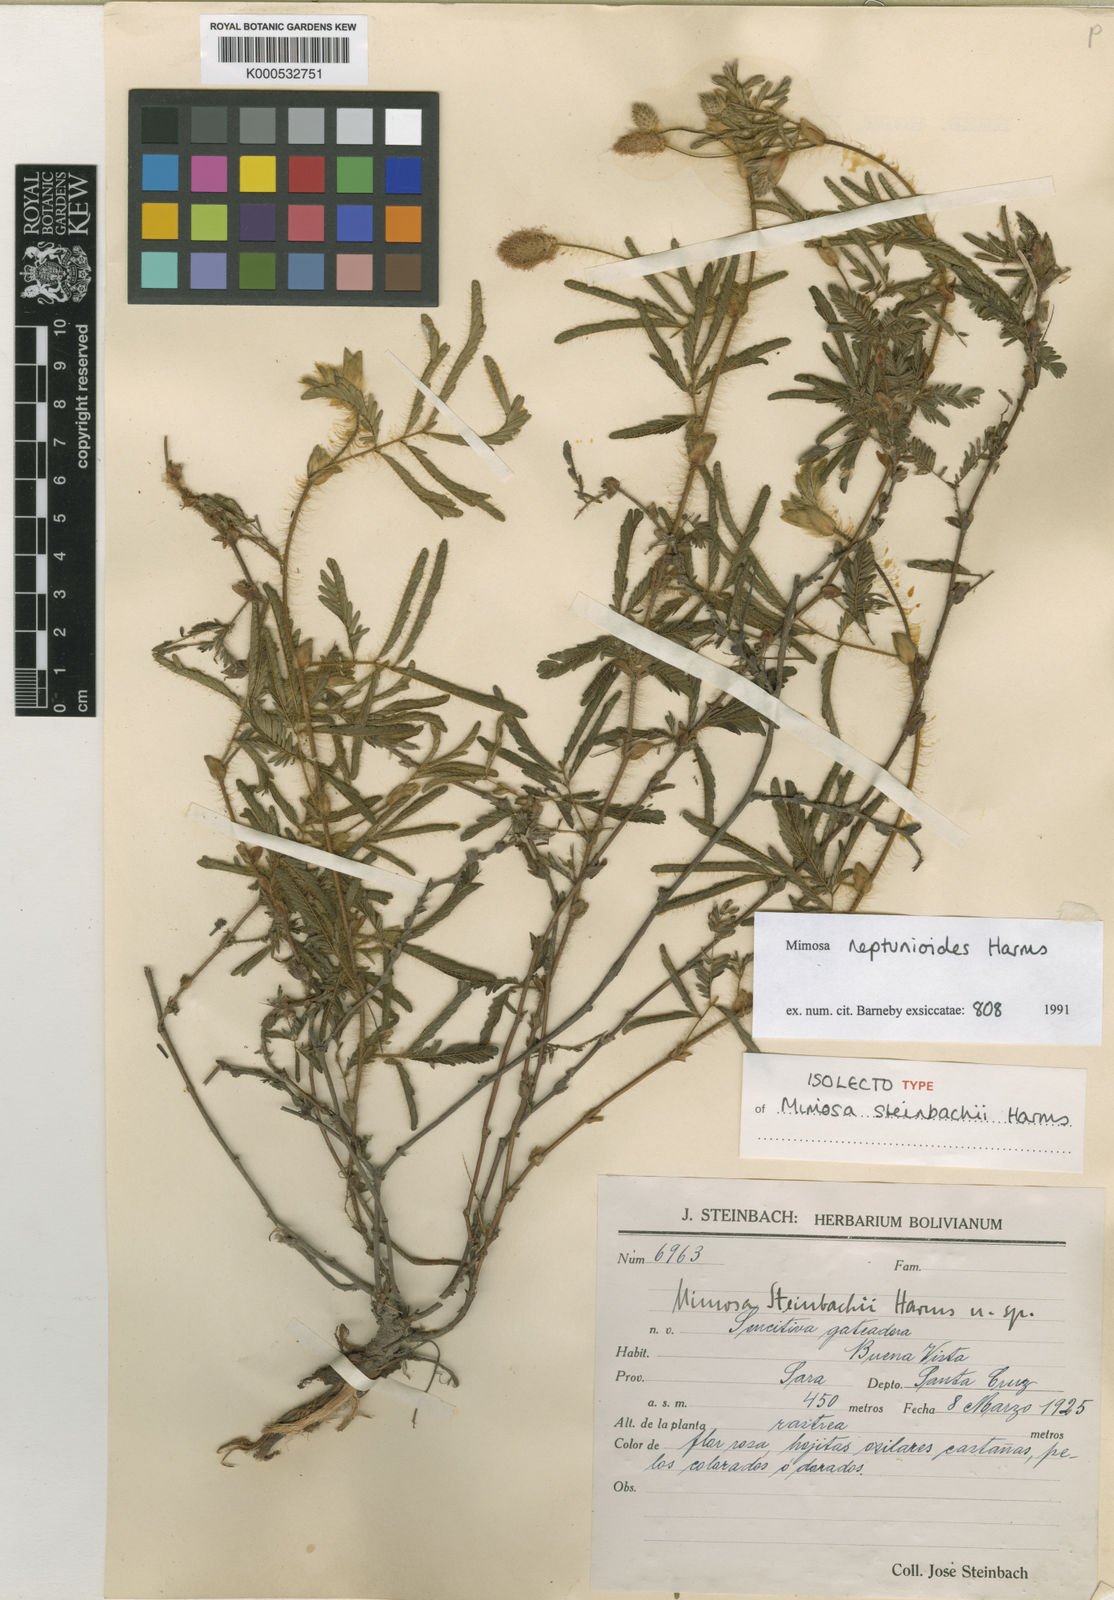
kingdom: Plantae
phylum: Tracheophyta
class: Magnoliopsida
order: Fabales
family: Fabaceae
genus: Mimosa
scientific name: Mimosa neptunioides
